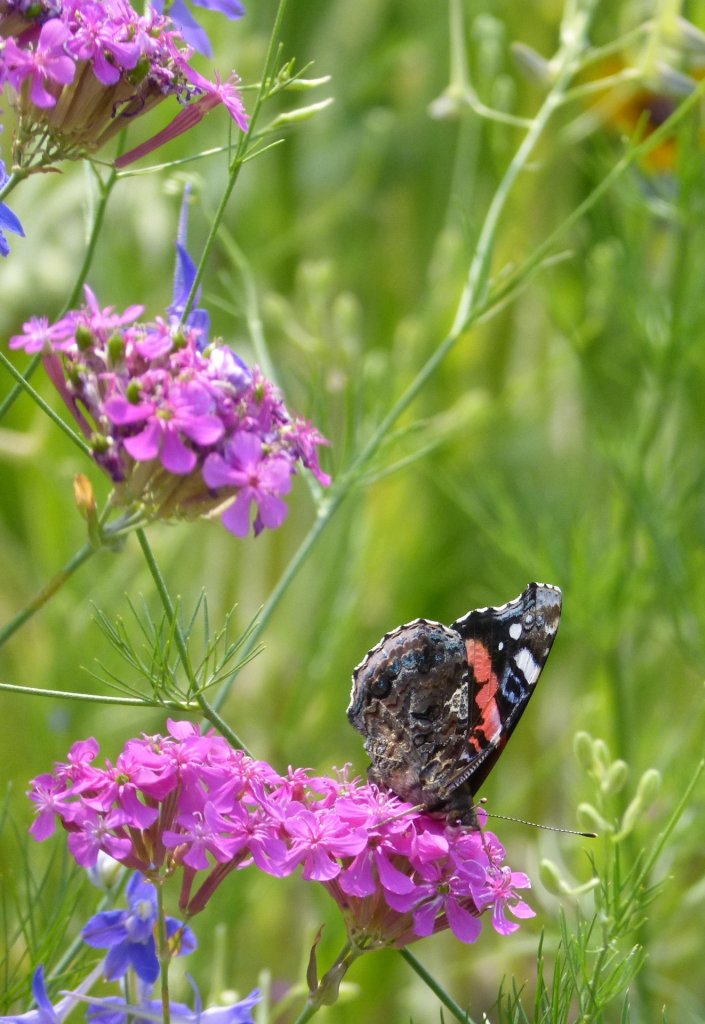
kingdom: Animalia
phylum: Arthropoda
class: Insecta
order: Lepidoptera
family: Nymphalidae
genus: Vanessa
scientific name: Vanessa atalanta
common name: Red Admiral
